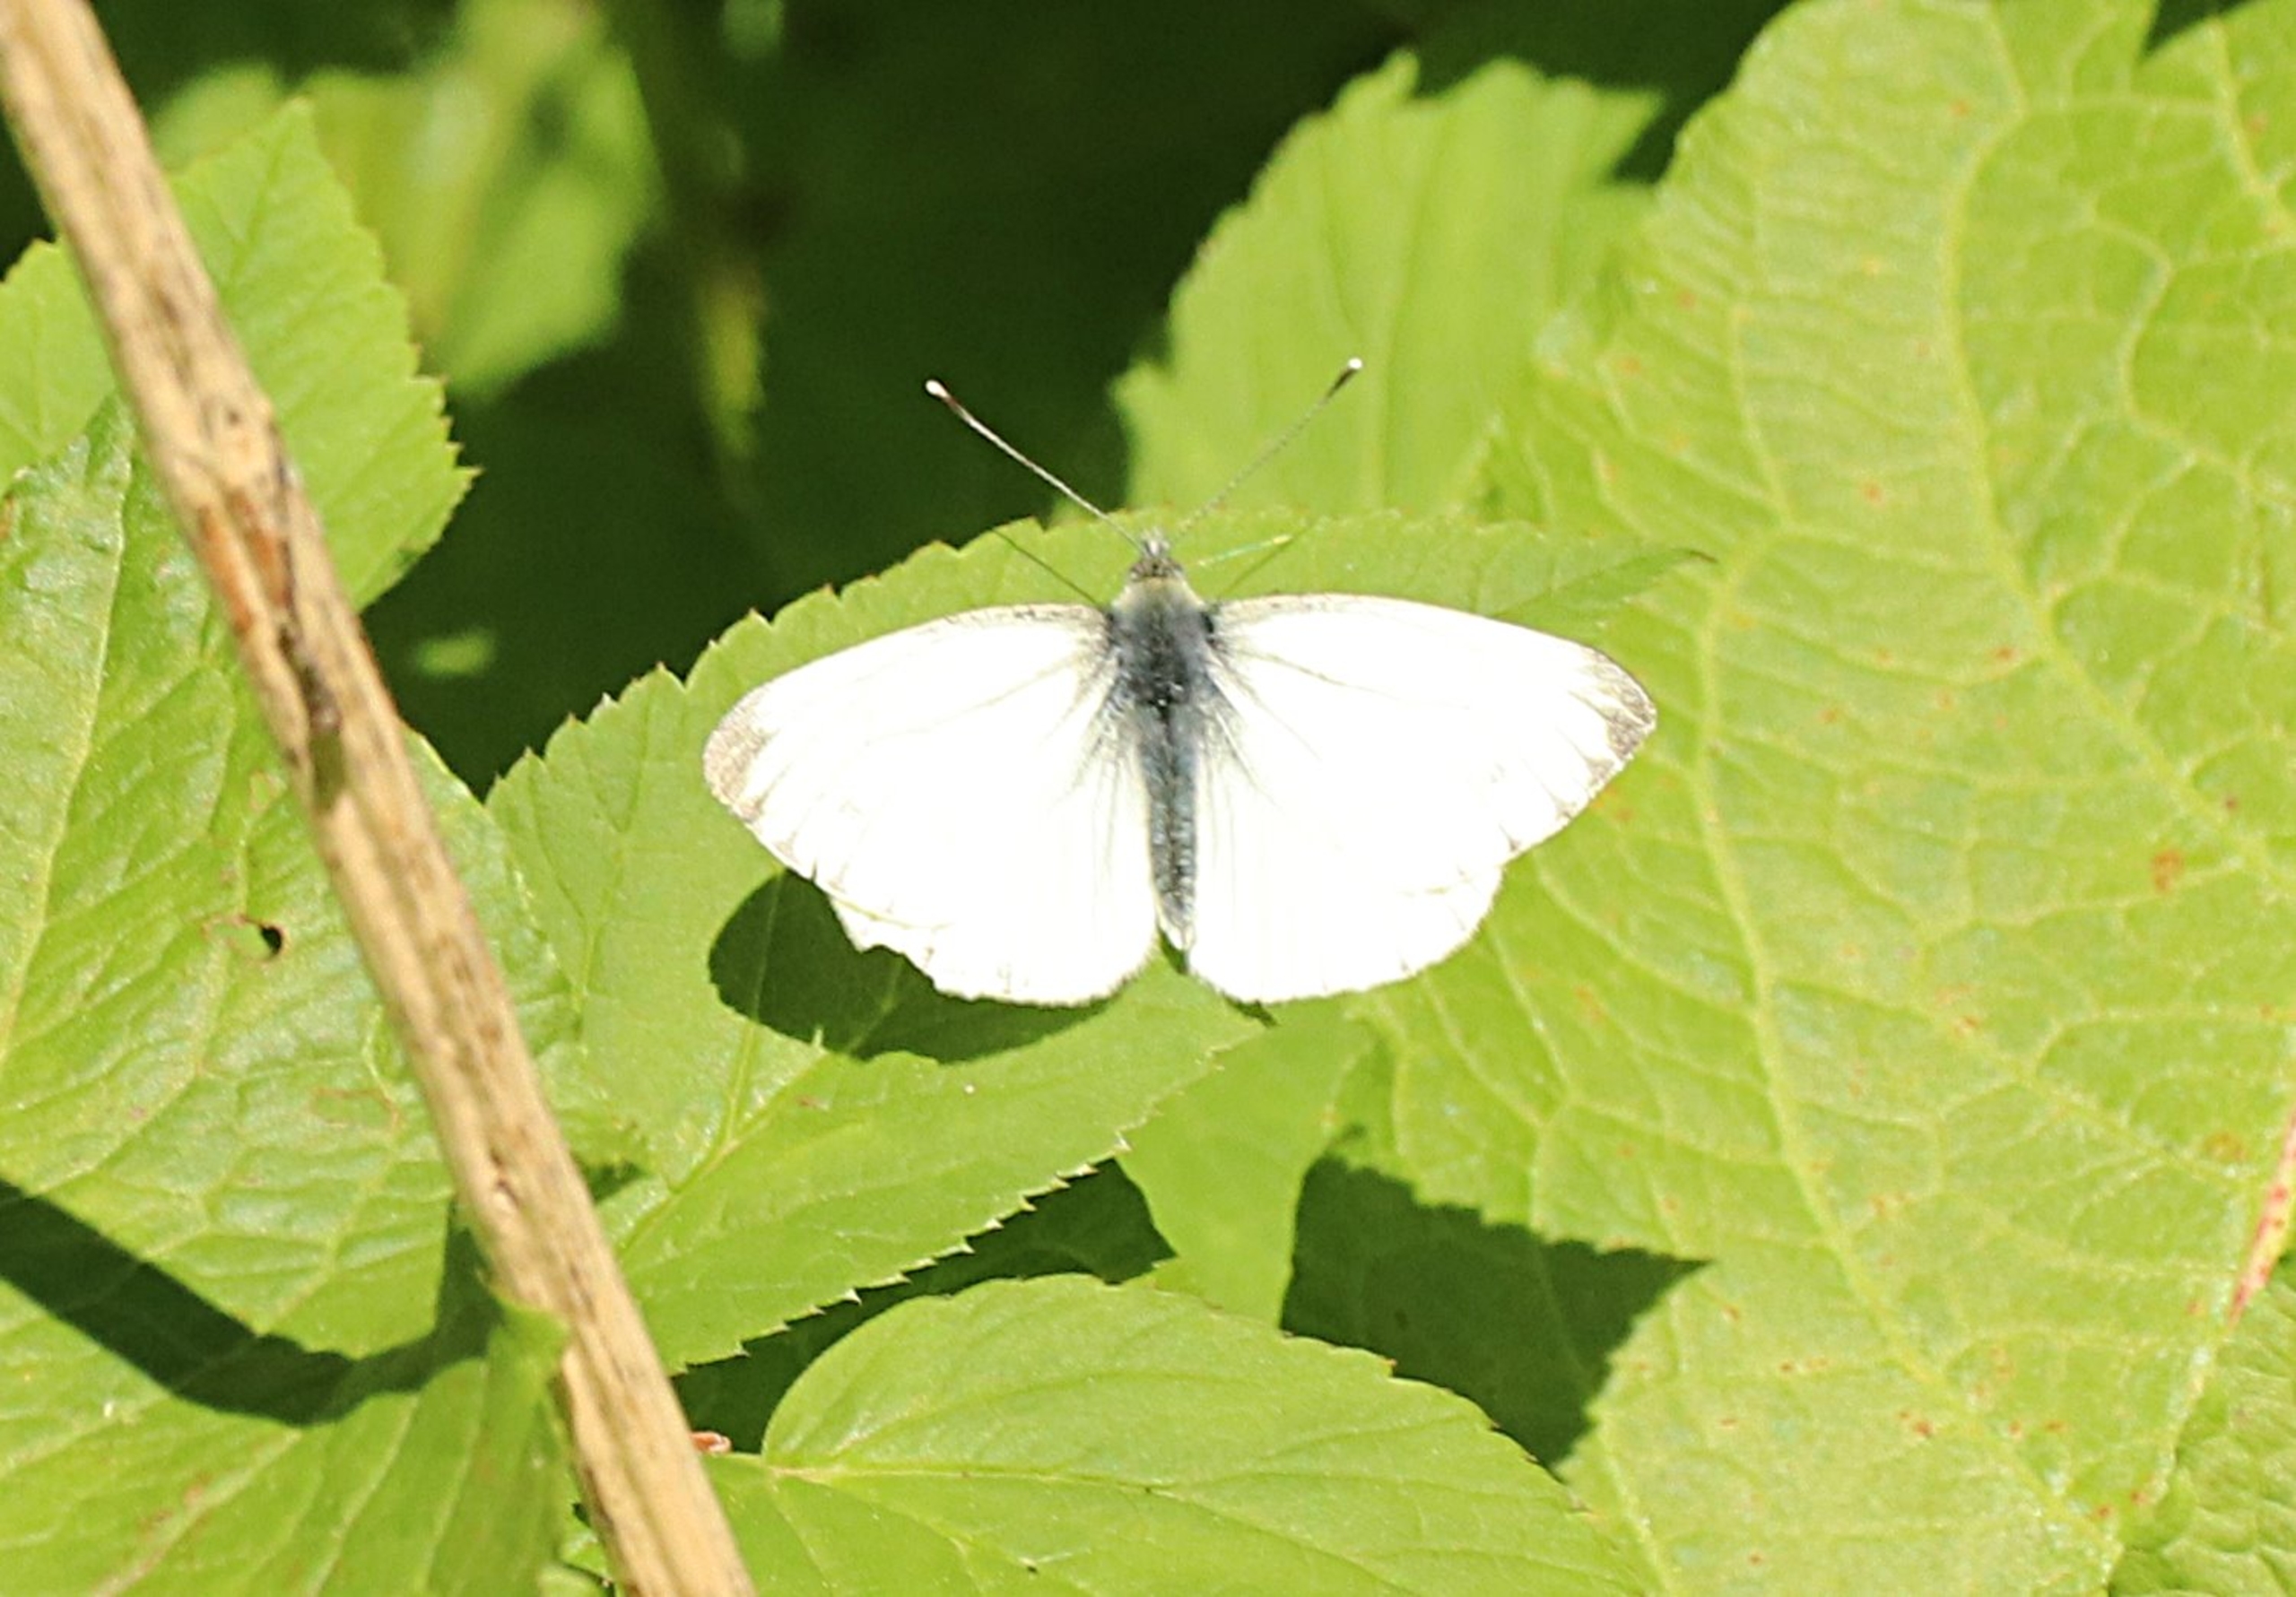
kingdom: Animalia
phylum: Arthropoda
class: Insecta
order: Lepidoptera
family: Pieridae
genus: Pieris
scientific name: Pieris napi
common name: Grønåret kålsommerfugl
